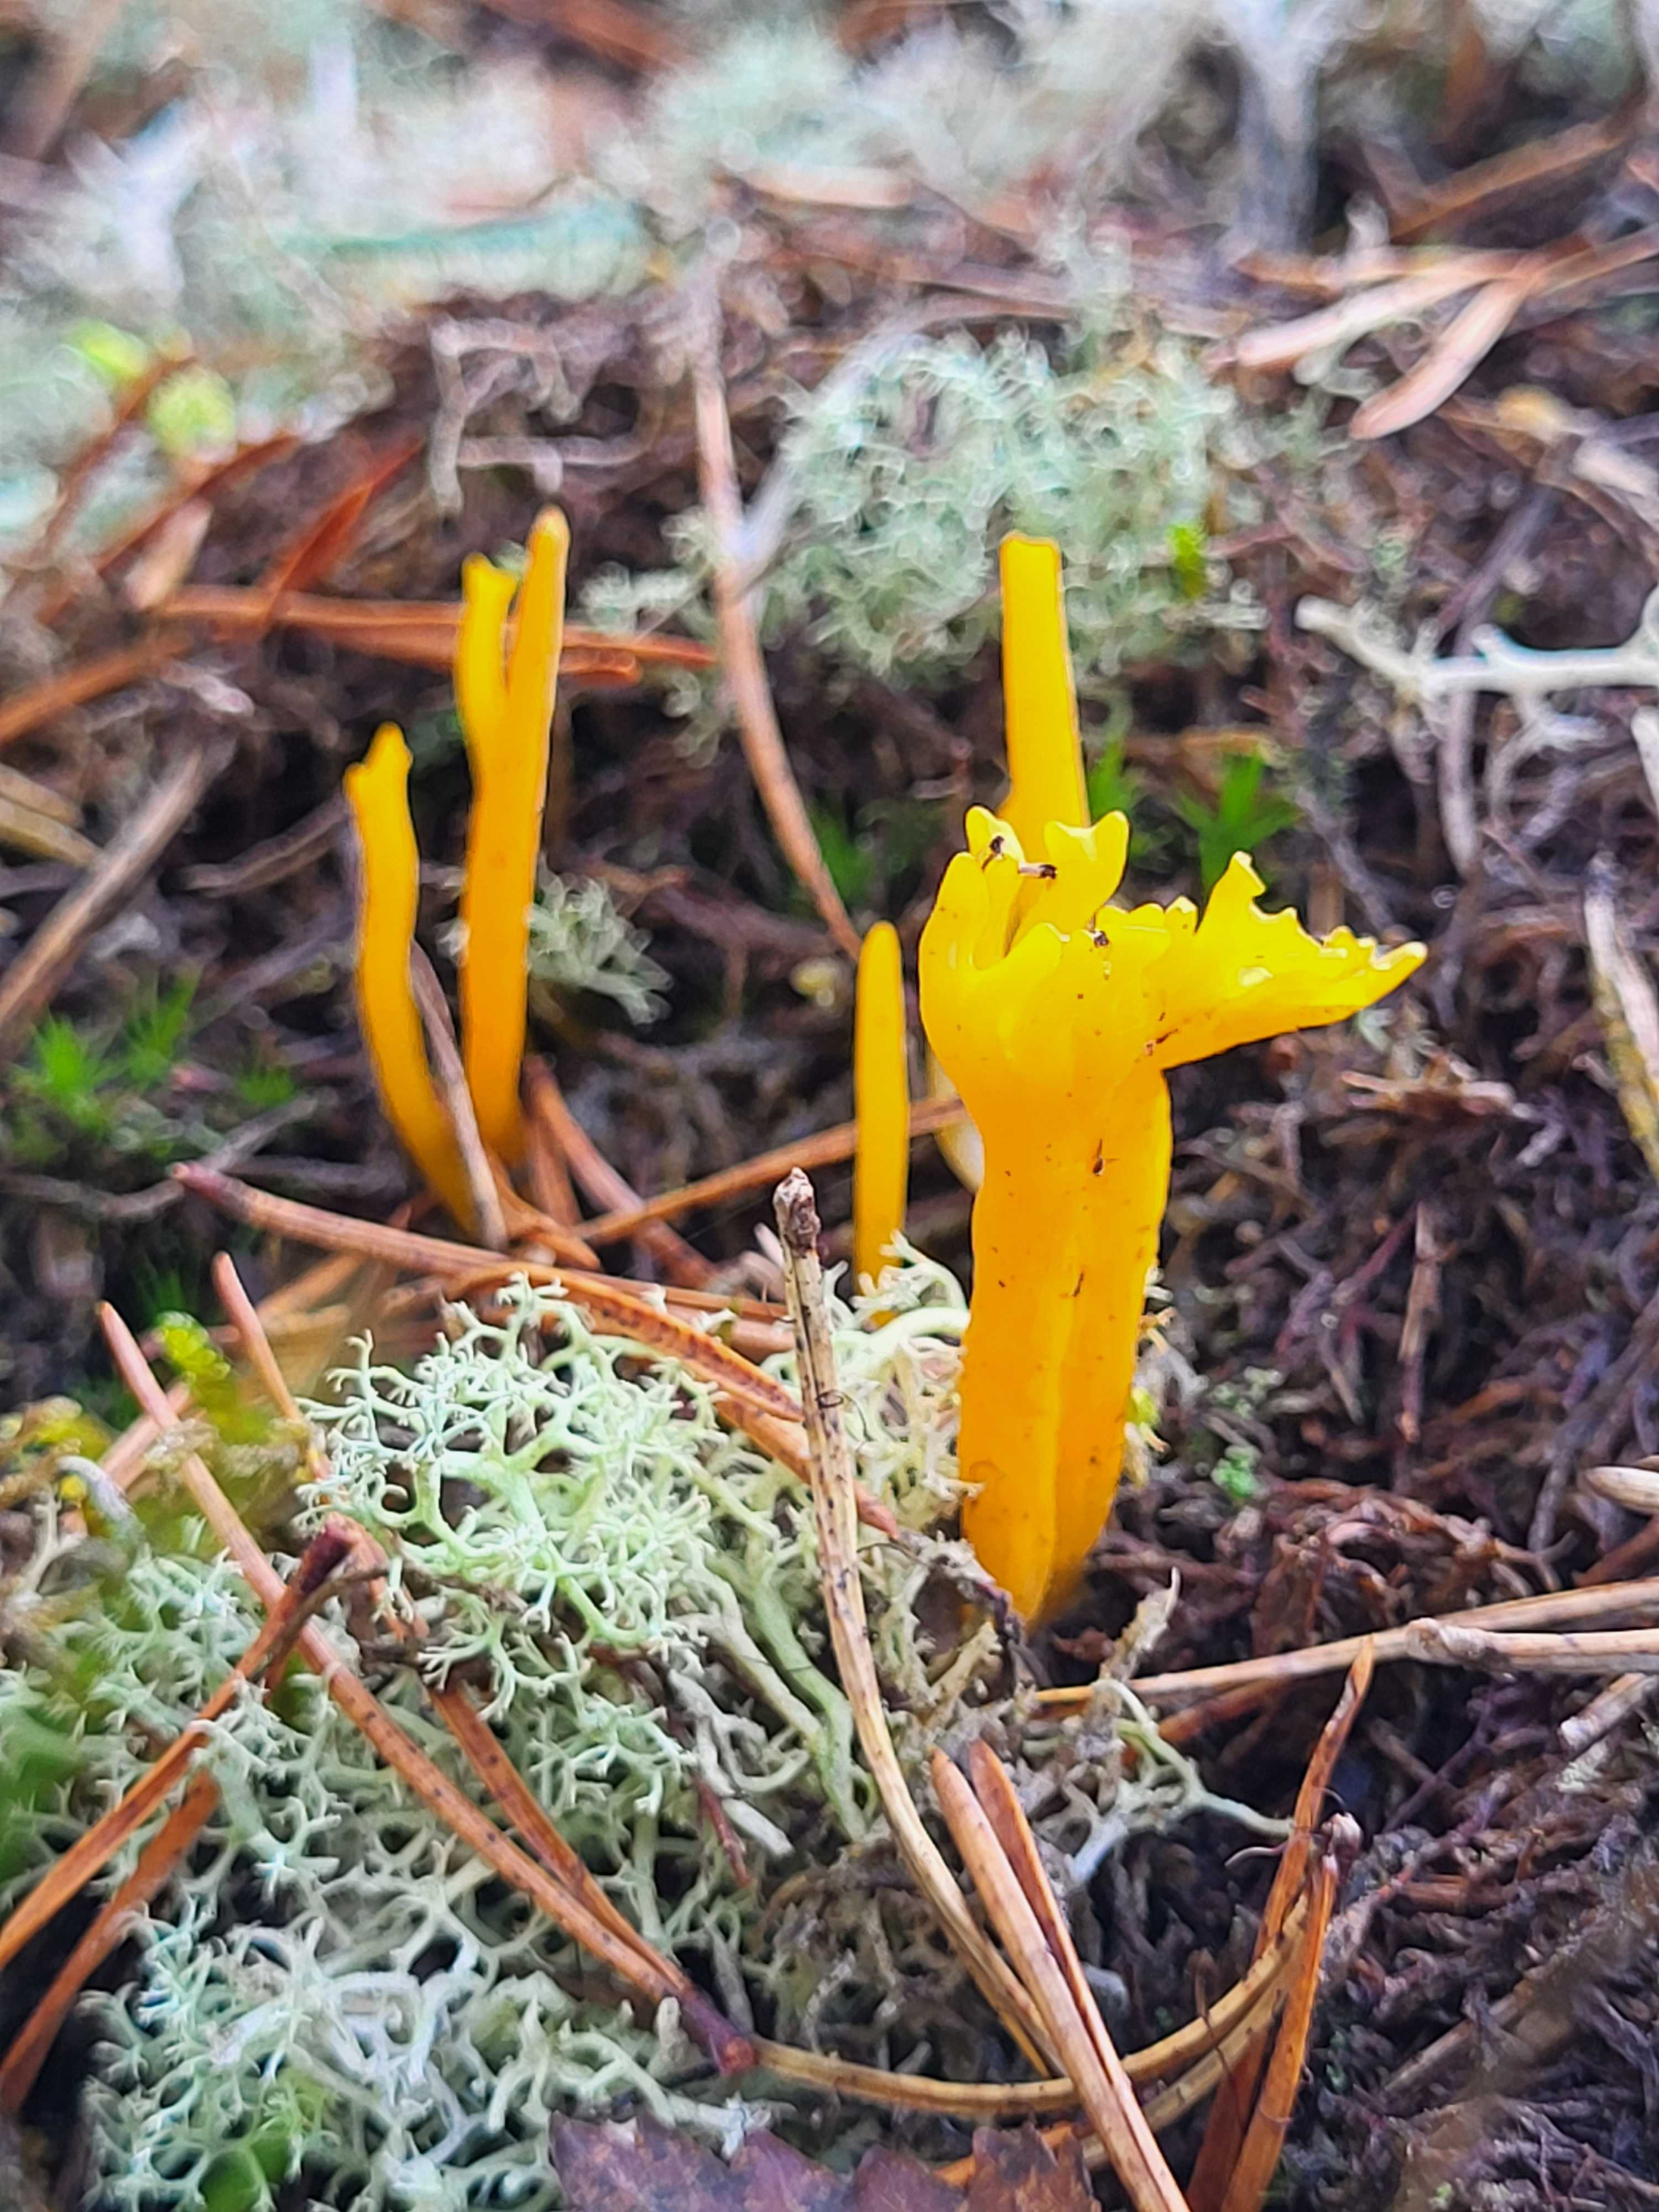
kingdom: Fungi
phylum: Basidiomycota
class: Dacrymycetes
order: Dacrymycetales
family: Dacrymycetaceae
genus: Calocera
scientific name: Calocera viscosa
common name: almindelig guldgaffel
